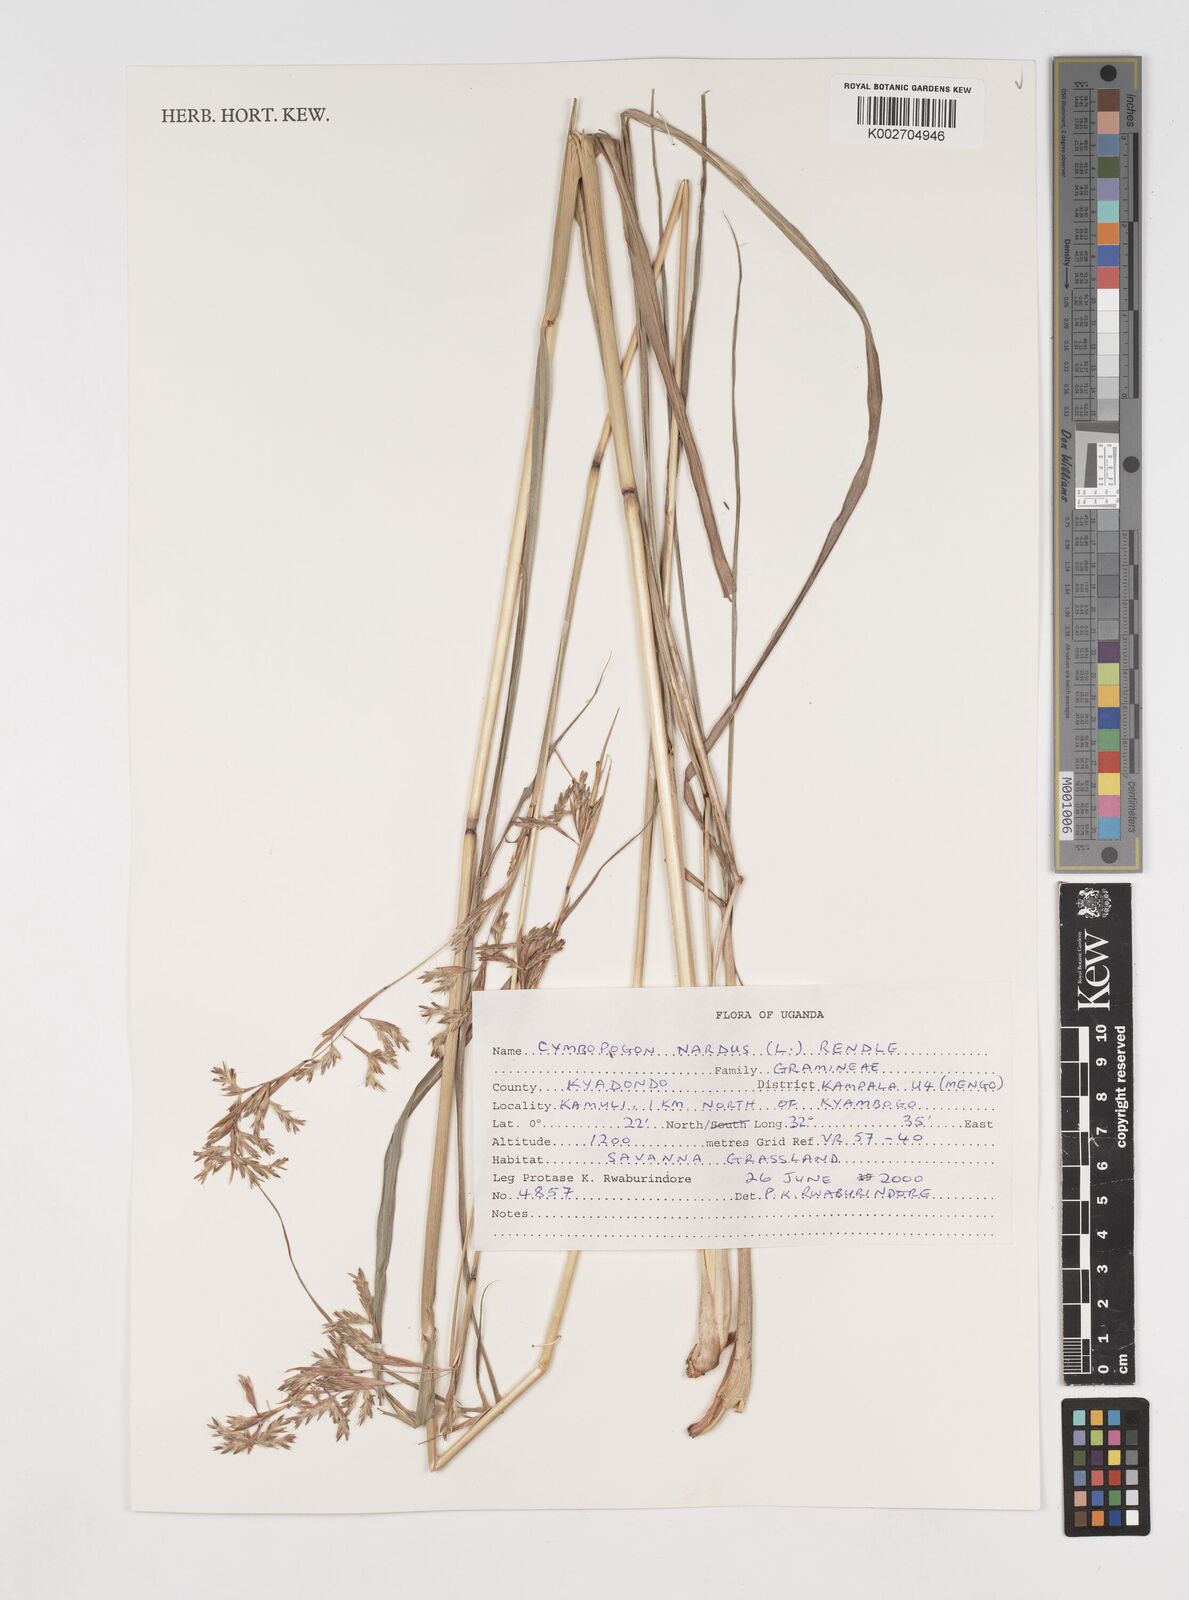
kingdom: Plantae
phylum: Tracheophyta
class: Liliopsida
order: Poales
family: Poaceae
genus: Cymbopogon
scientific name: Cymbopogon nardus
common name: Giant turpentine grass
